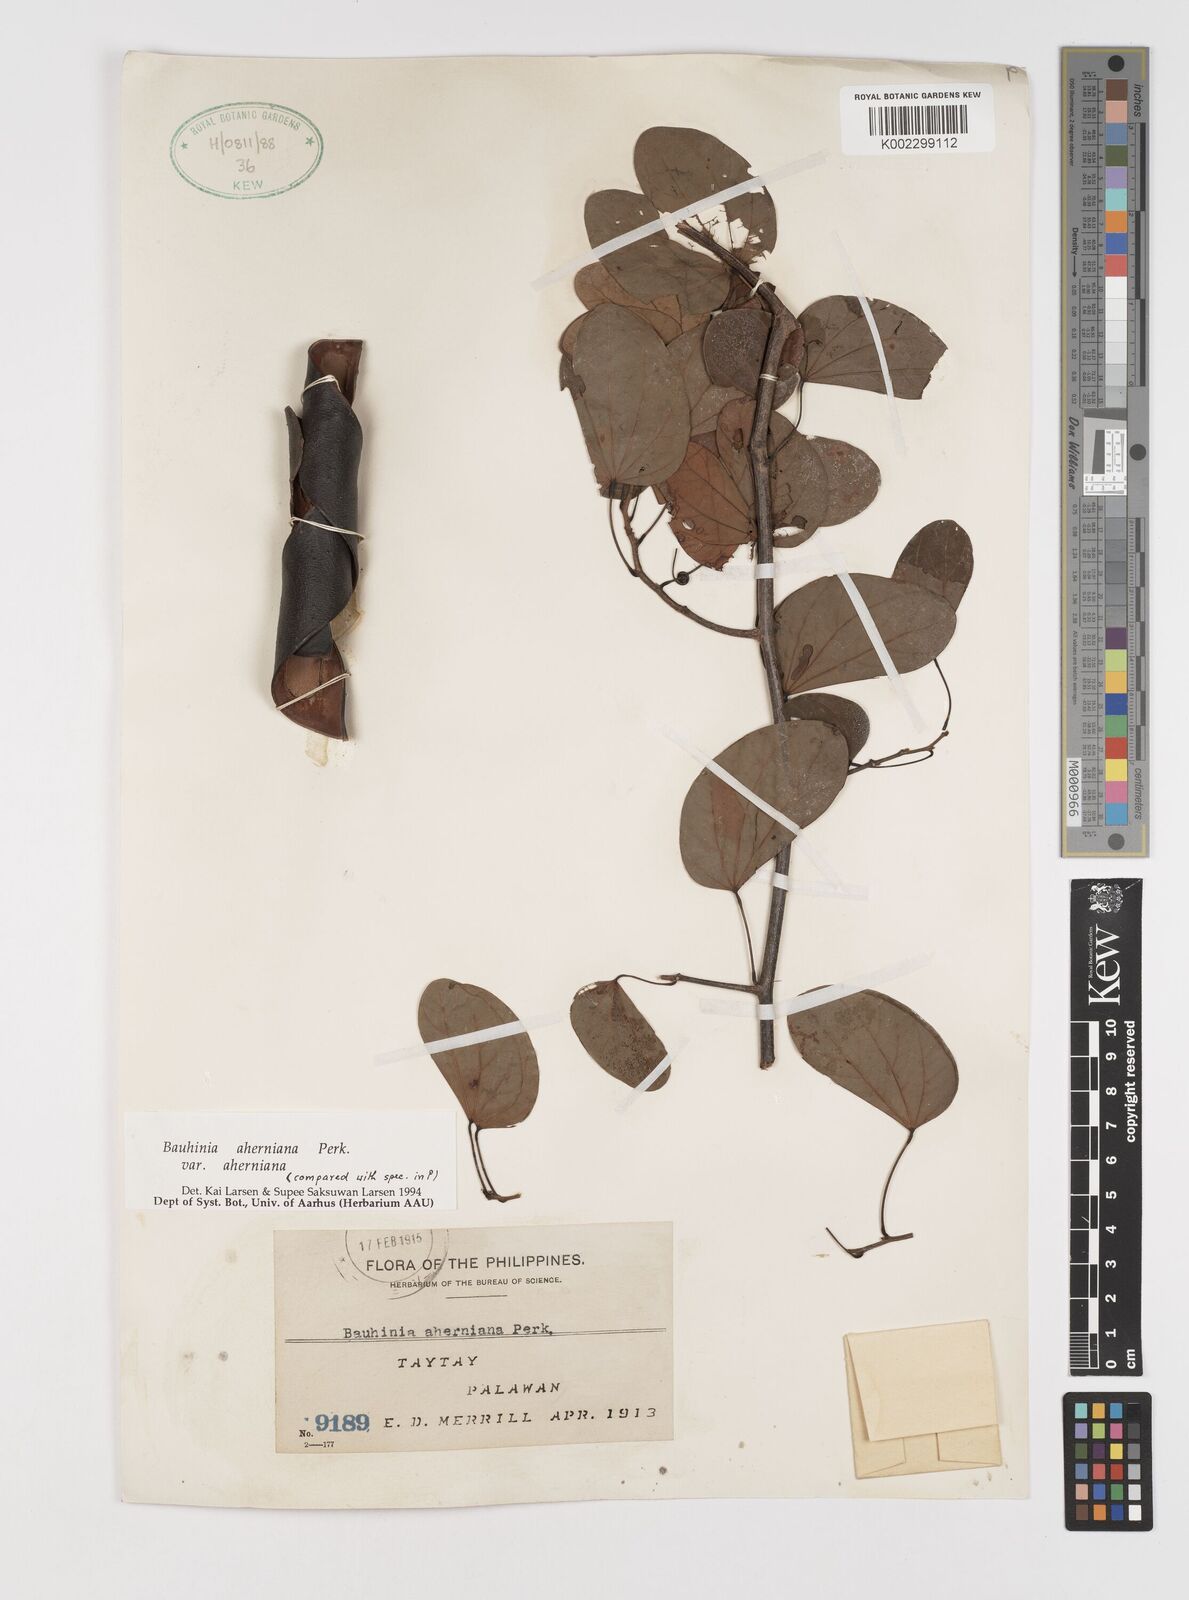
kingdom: Plantae
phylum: Tracheophyta
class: Magnoliopsida
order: Fabales
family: Fabaceae
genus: Phanera
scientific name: Phanera aherniana
